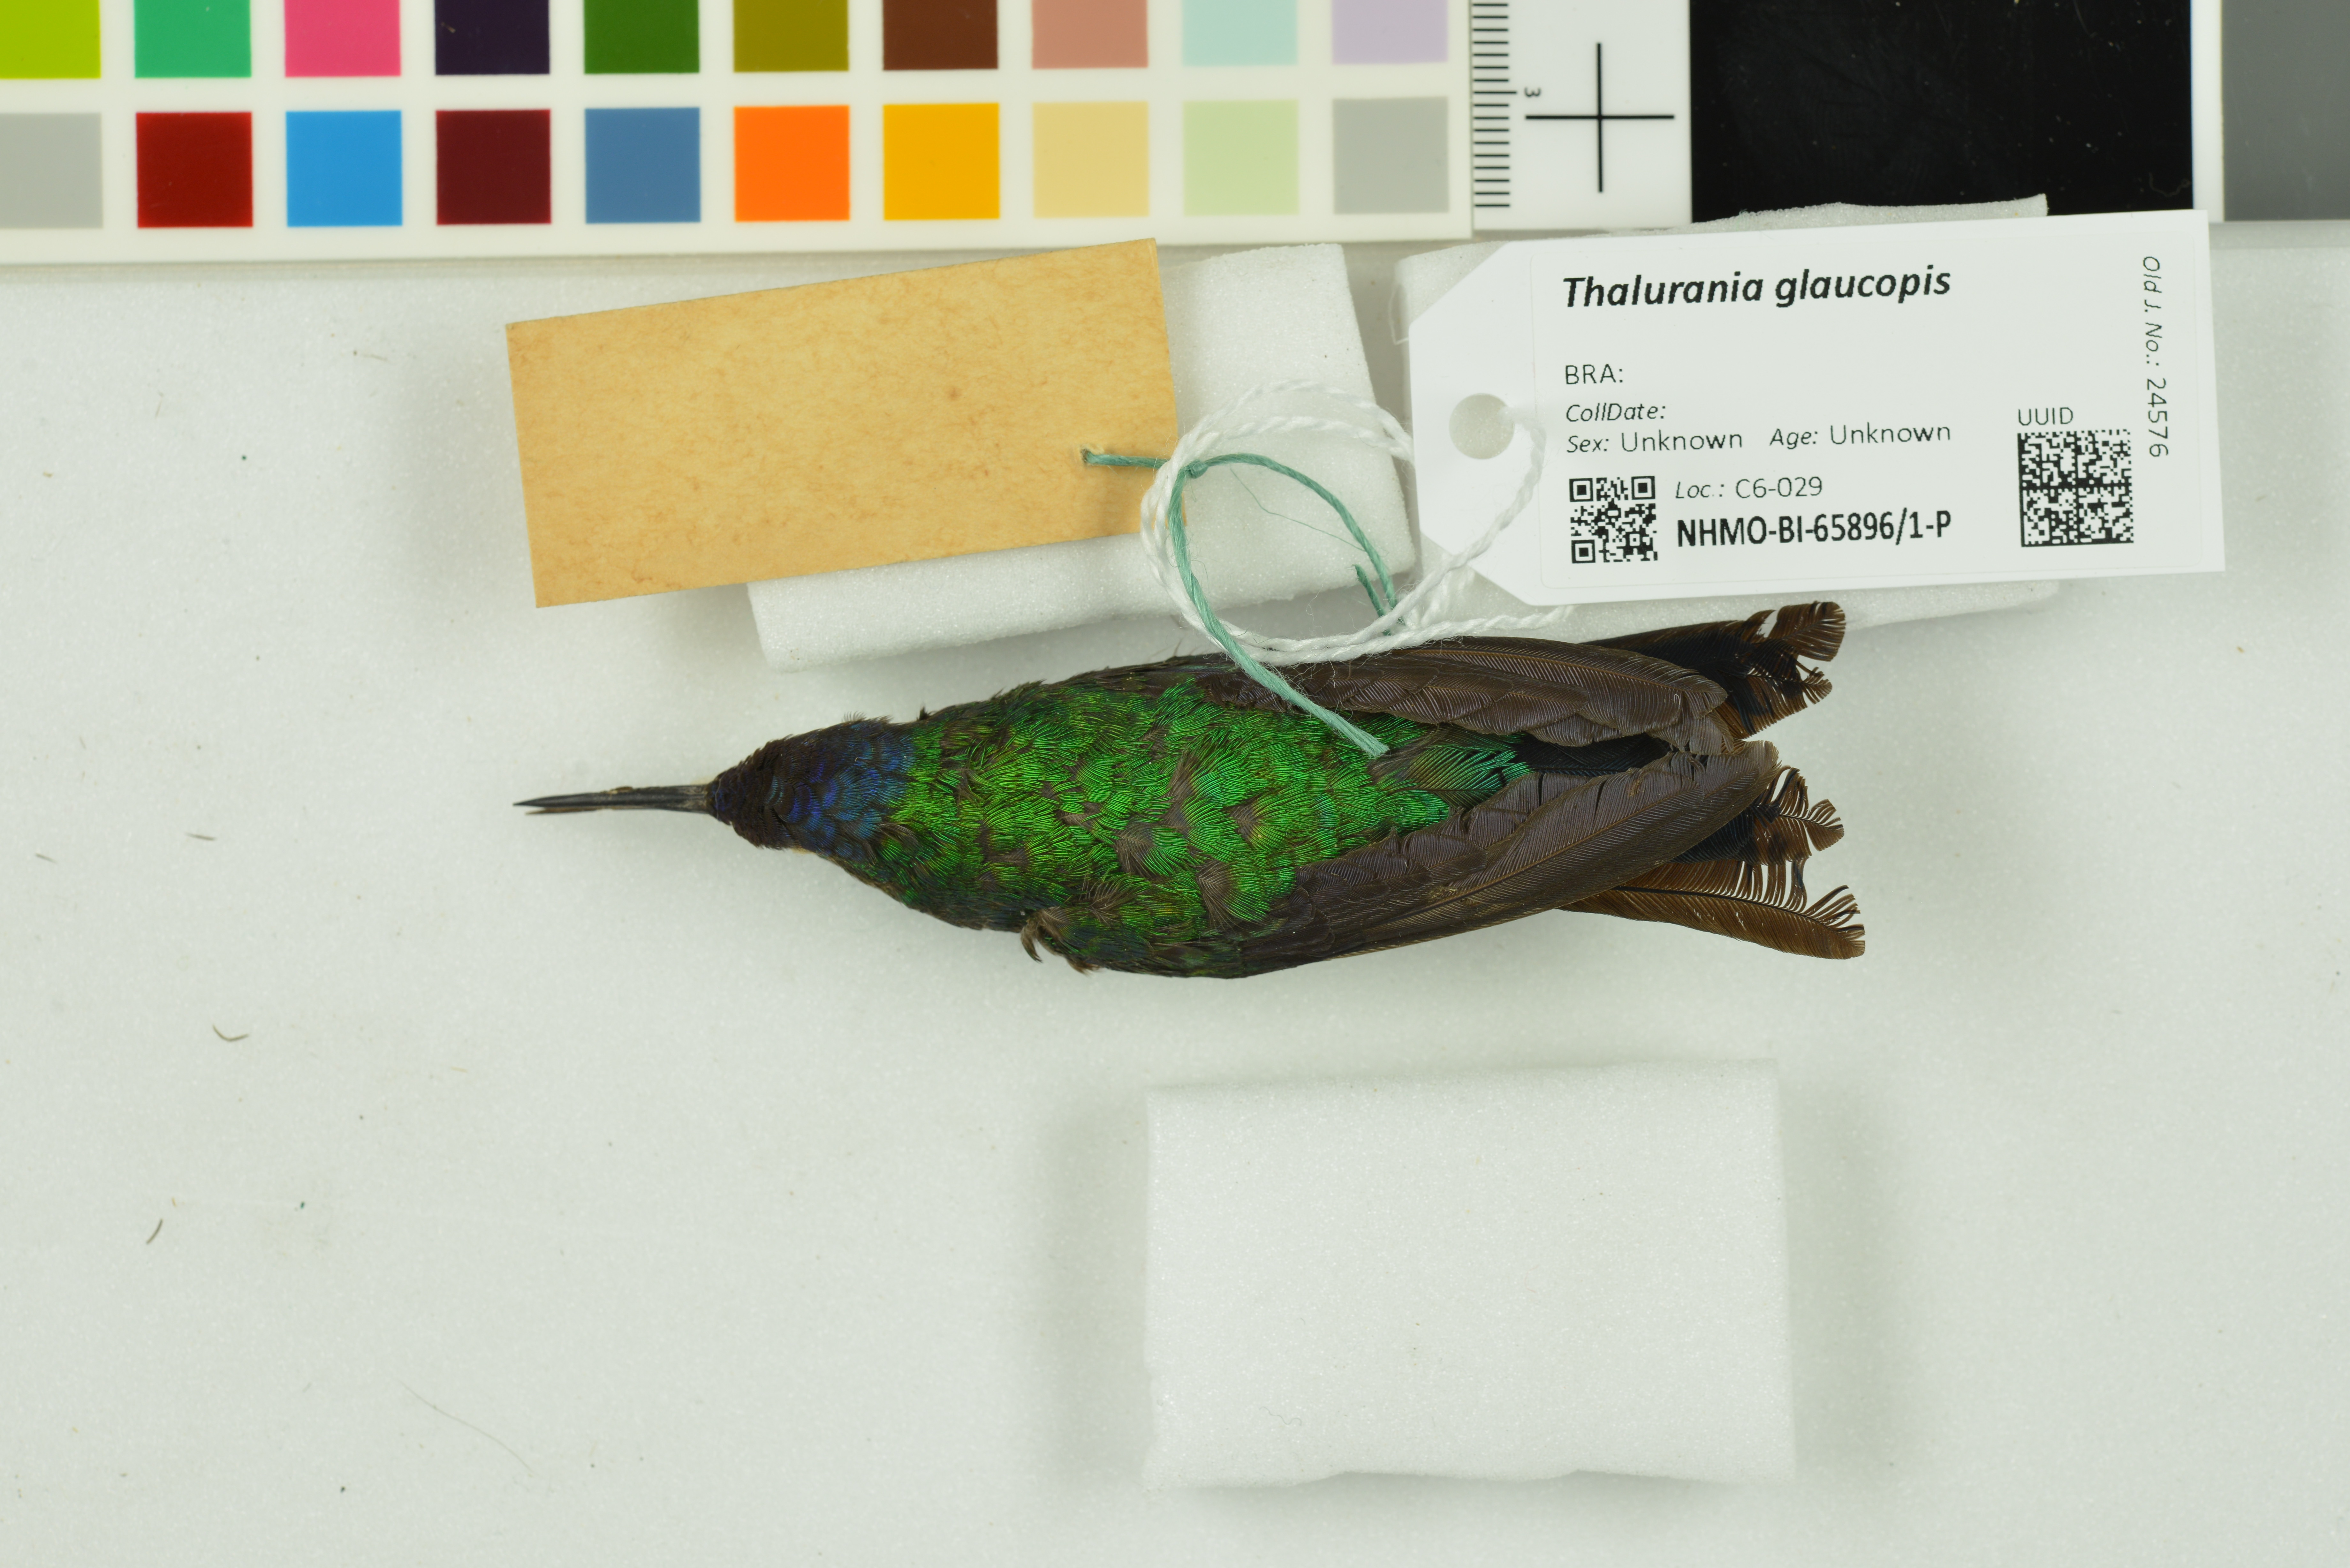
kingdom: Animalia
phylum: Chordata
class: Aves
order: Apodiformes
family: Trochilidae
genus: Thalurania
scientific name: Thalurania glaucopis
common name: Violet-capped woodnymph
